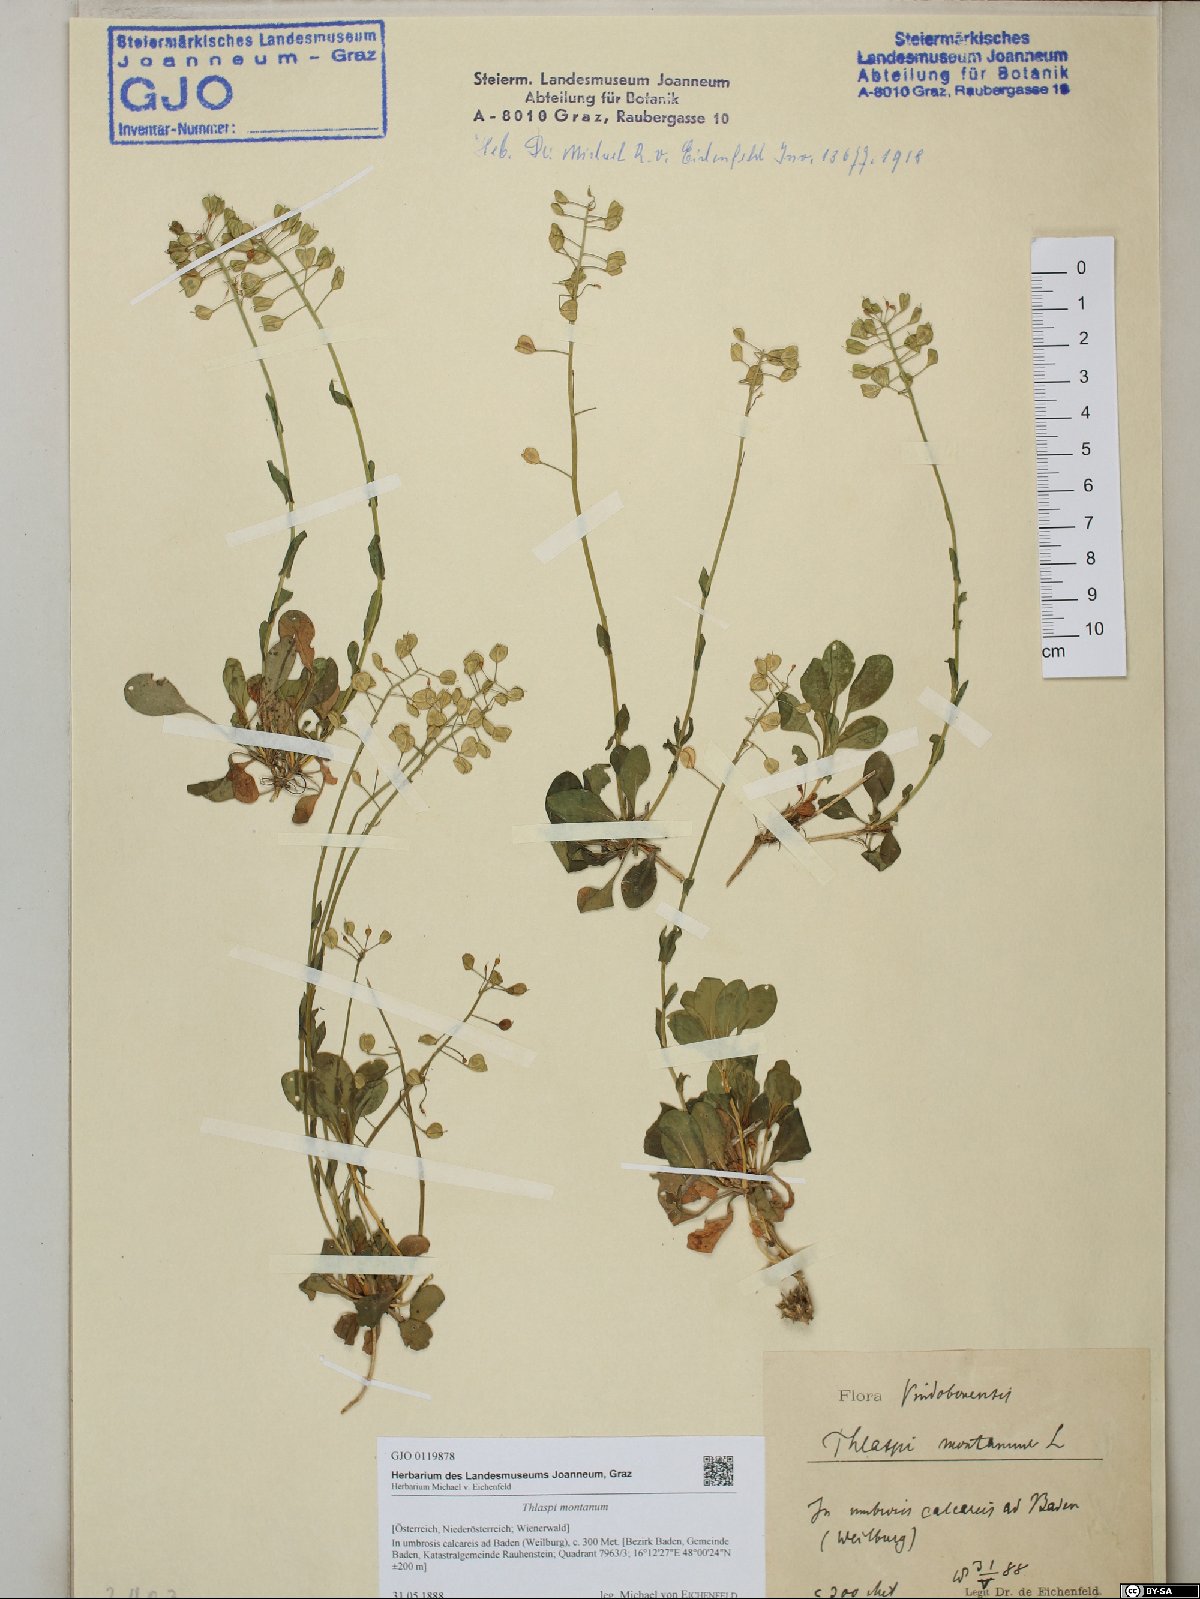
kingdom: Plantae
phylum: Tracheophyta
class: Magnoliopsida
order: Brassicales
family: Brassicaceae
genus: Noccaea
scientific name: Noccaea montana
